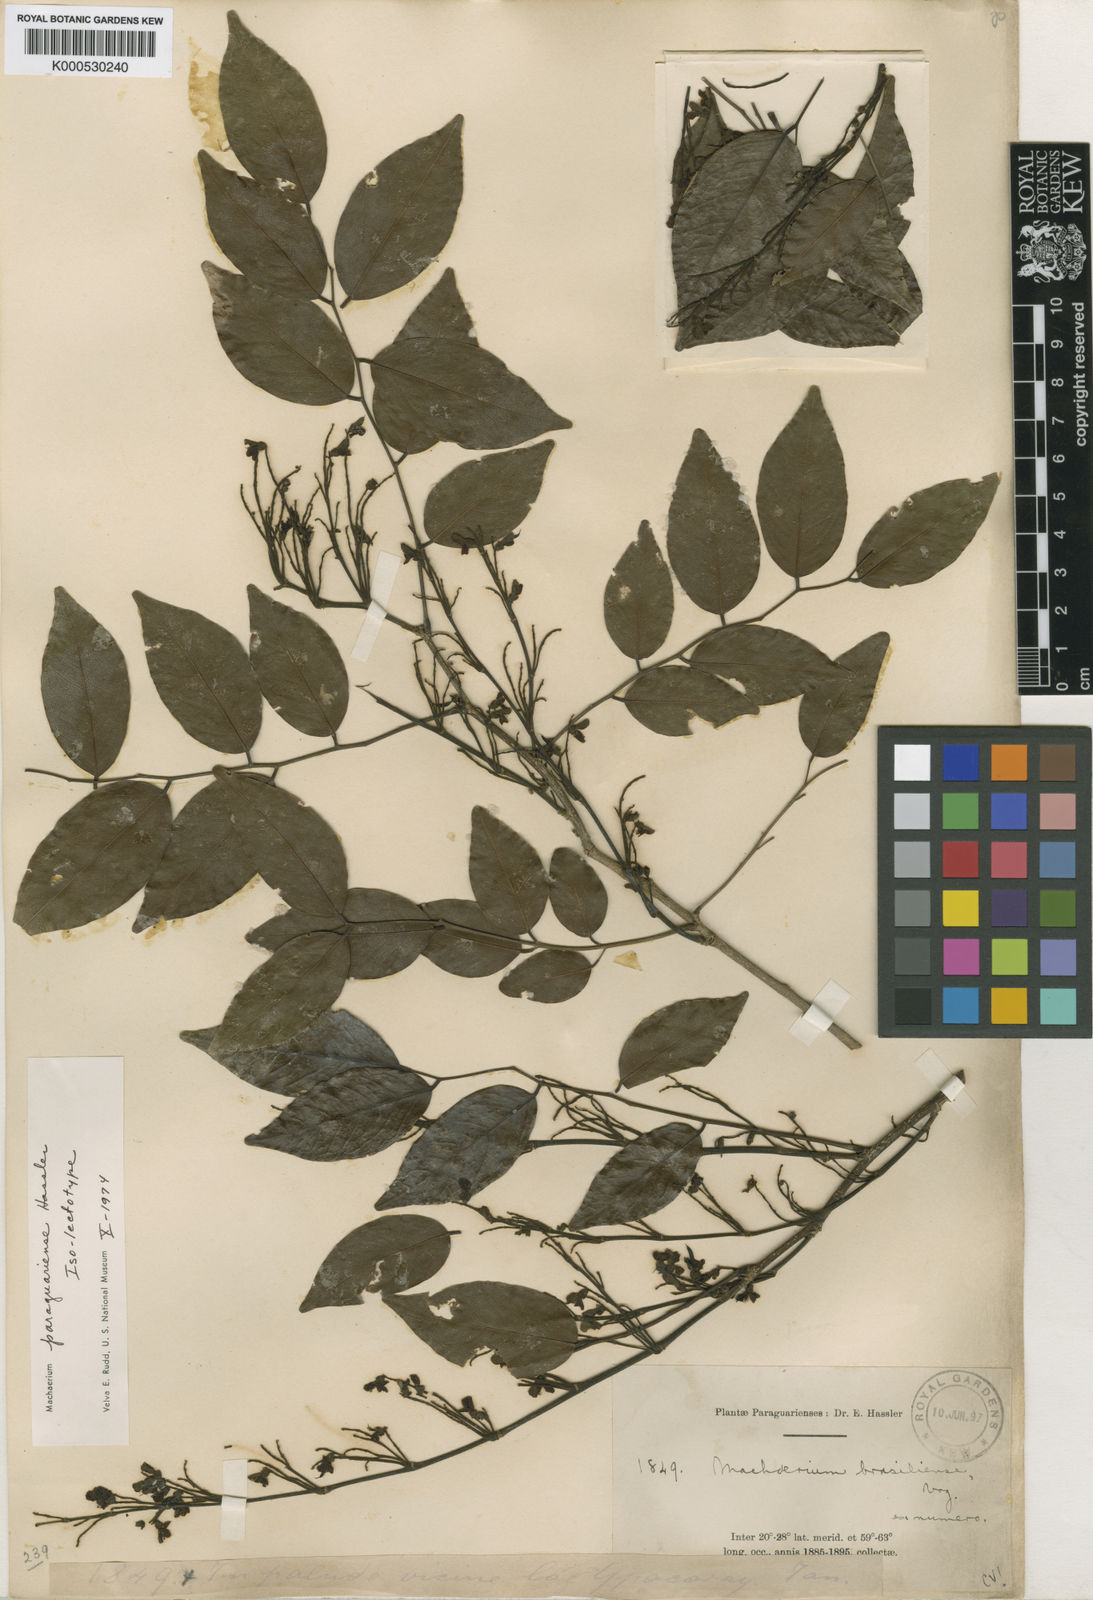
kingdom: Plantae
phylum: Tracheophyta
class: Magnoliopsida
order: Fabales
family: Fabaceae
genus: Machaerium
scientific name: Machaerium oblongifolium
